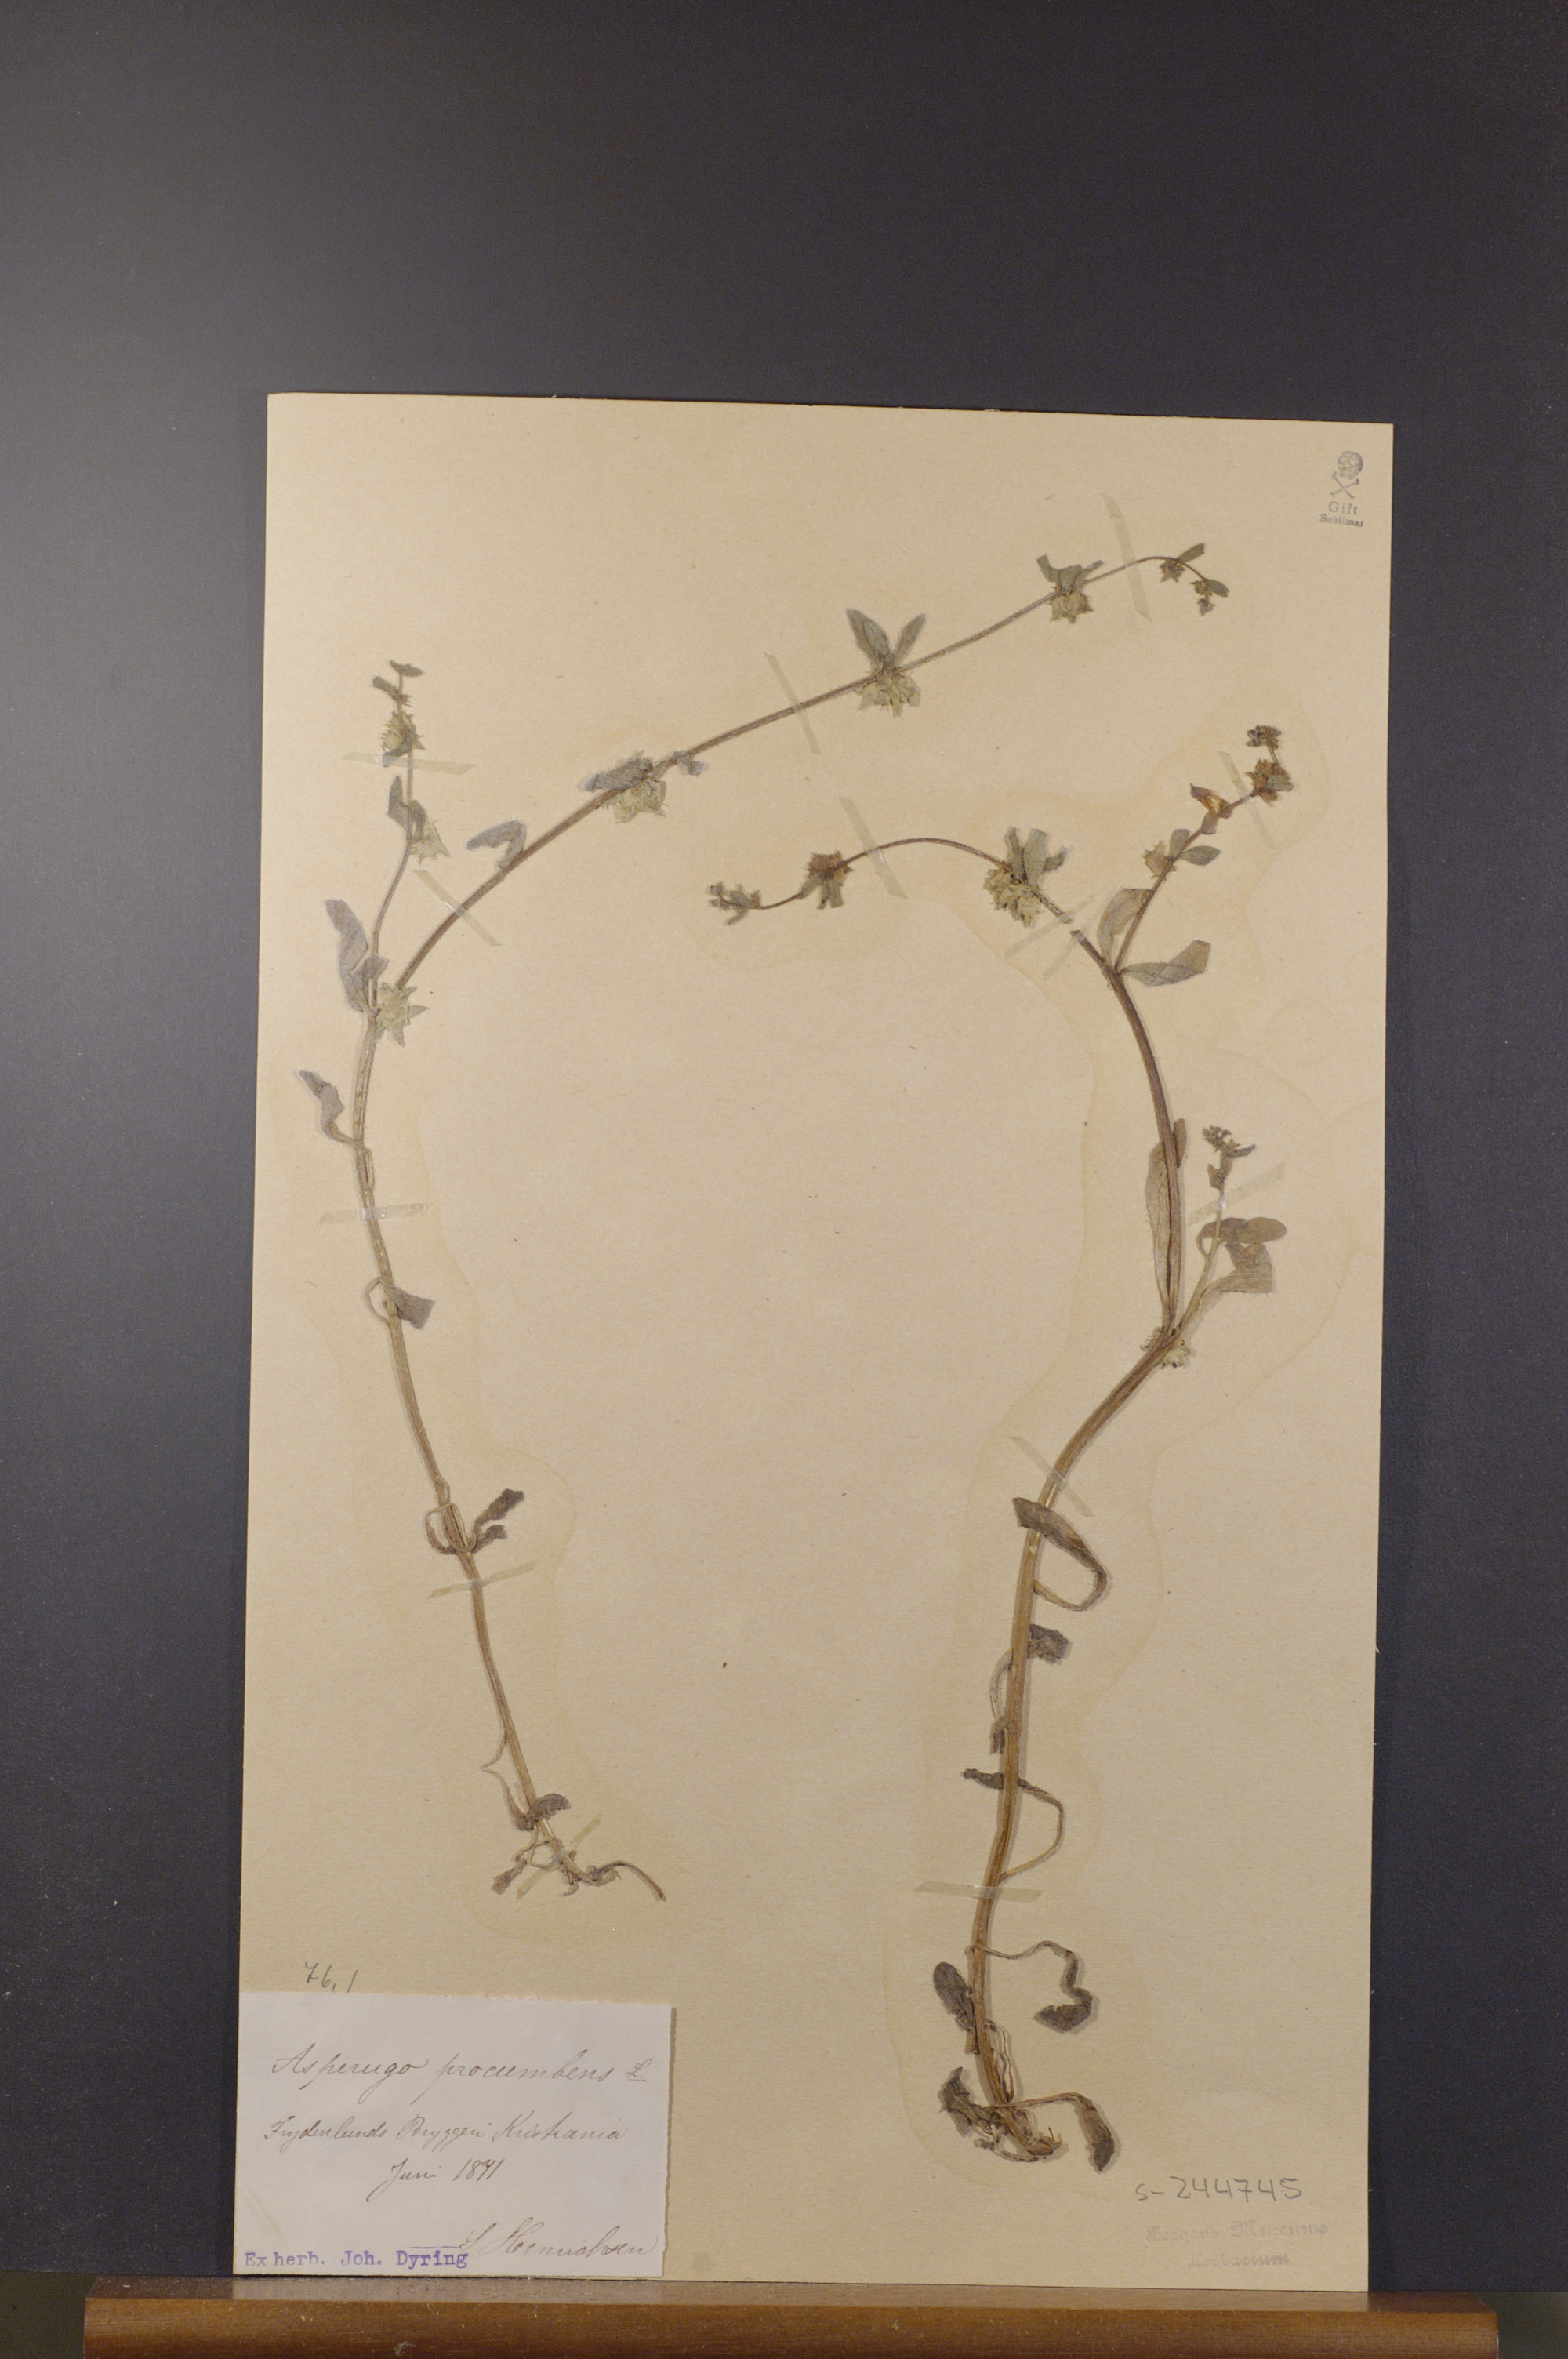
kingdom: Plantae
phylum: Tracheophyta
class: Magnoliopsida
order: Boraginales
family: Boraginaceae
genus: Asperugo
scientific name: Asperugo procumbens
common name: Madwort
